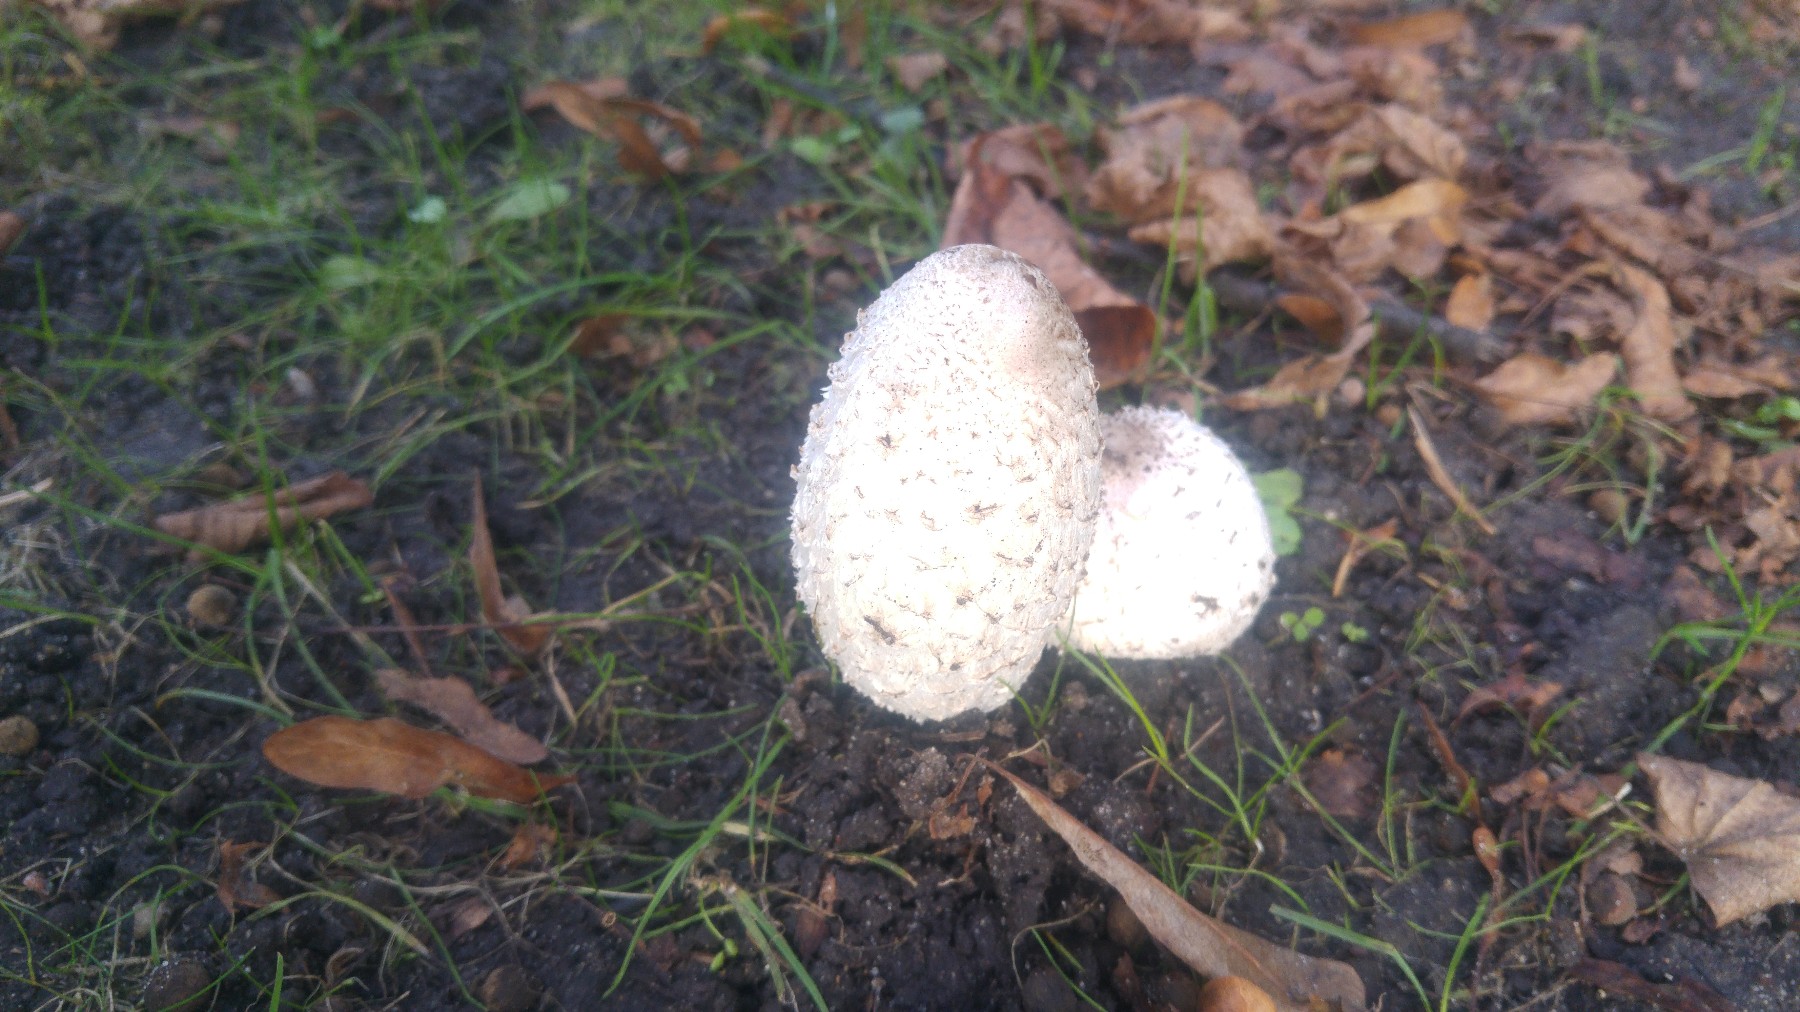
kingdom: Fungi
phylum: Basidiomycota
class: Agaricomycetes
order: Agaricales
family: Agaricaceae
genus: Coprinus
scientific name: Coprinus comatus
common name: stor parykhat
